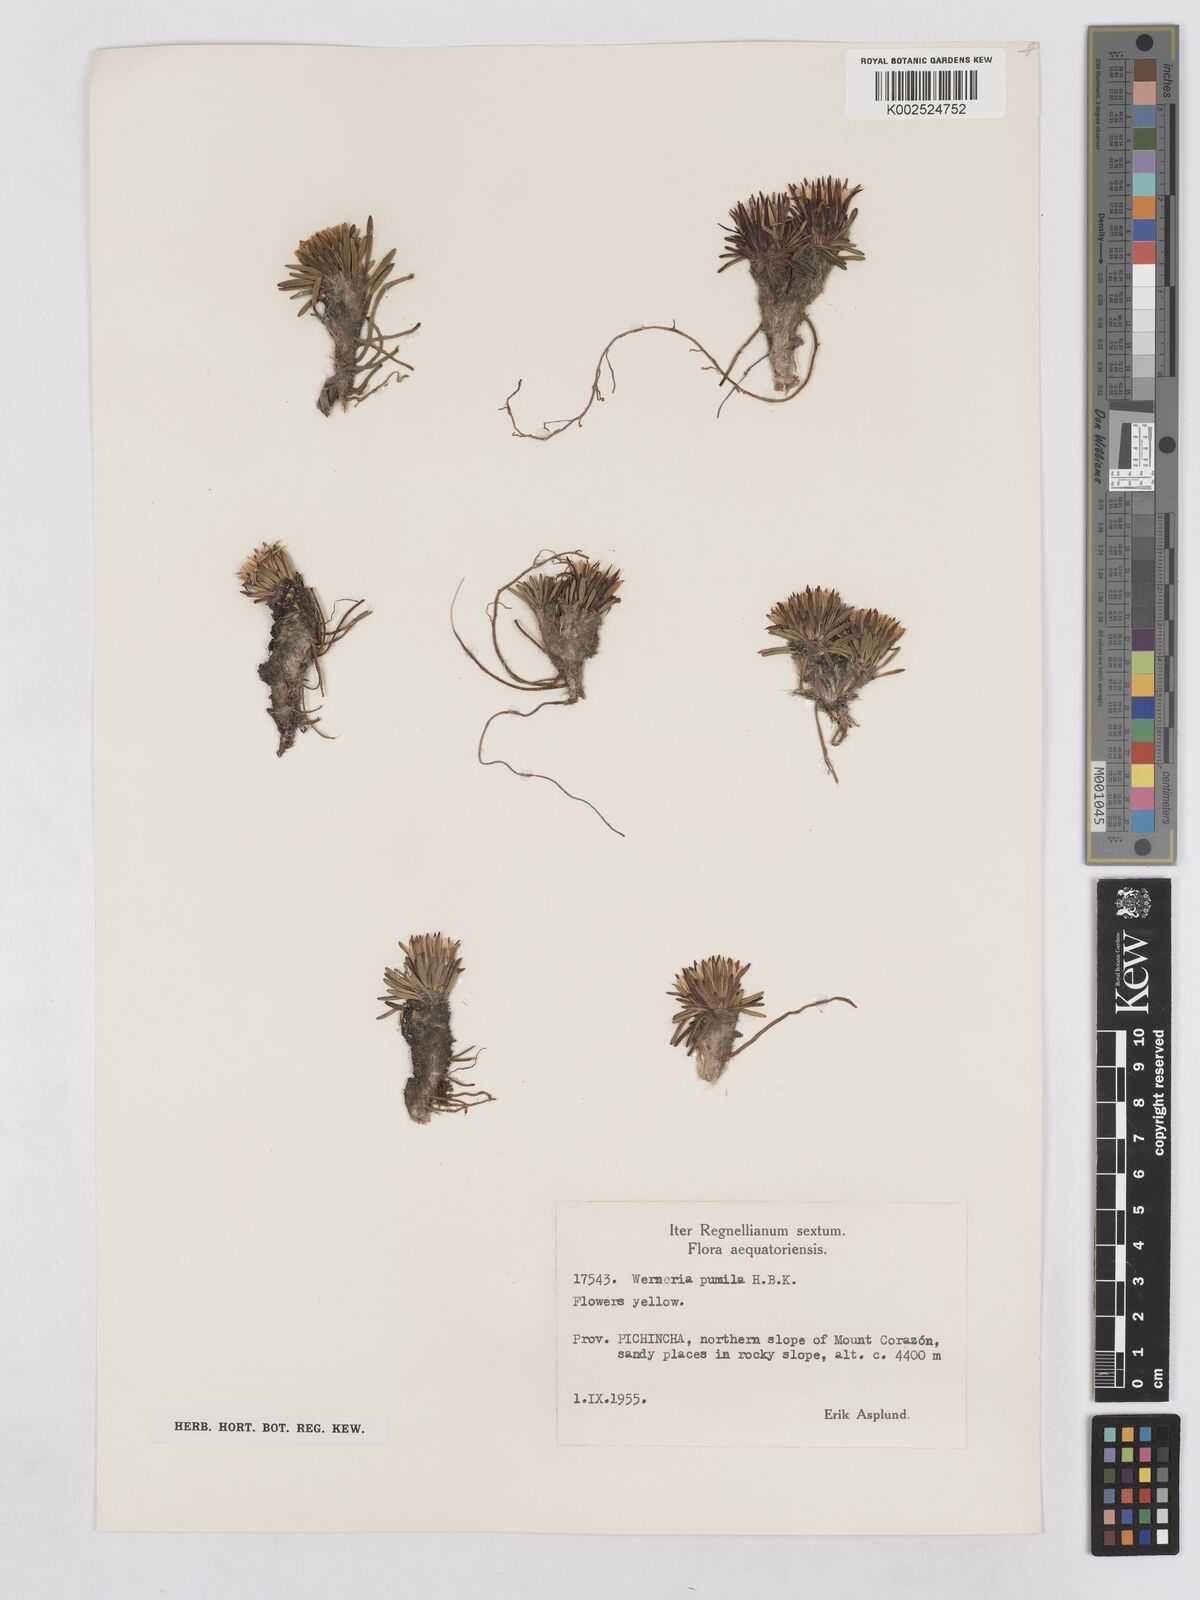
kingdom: Plantae
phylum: Tracheophyta
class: Magnoliopsida
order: Asterales
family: Asteraceae
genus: Rockhausenia
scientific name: Rockhausenia pumila
